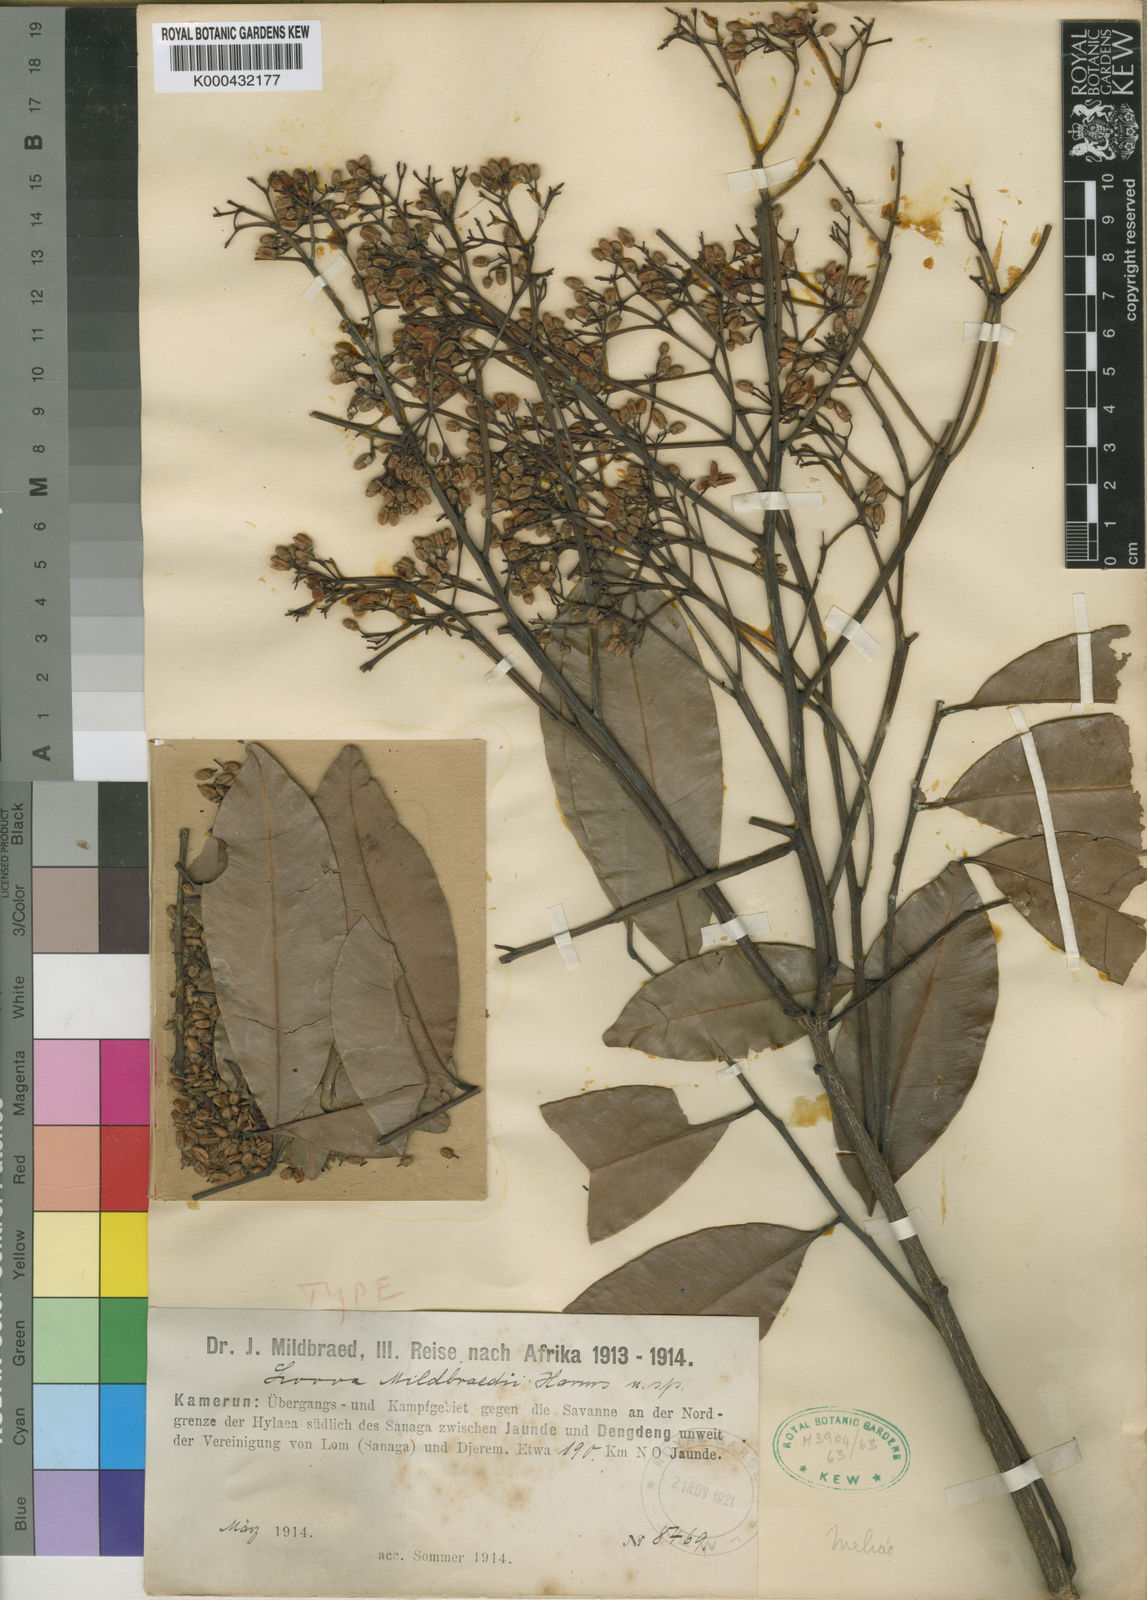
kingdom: Plantae
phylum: Tracheophyta
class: Magnoliopsida
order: Sapindales
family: Meliaceae
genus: Lovoa
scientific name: Lovoa trichilioides
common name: Congowood
